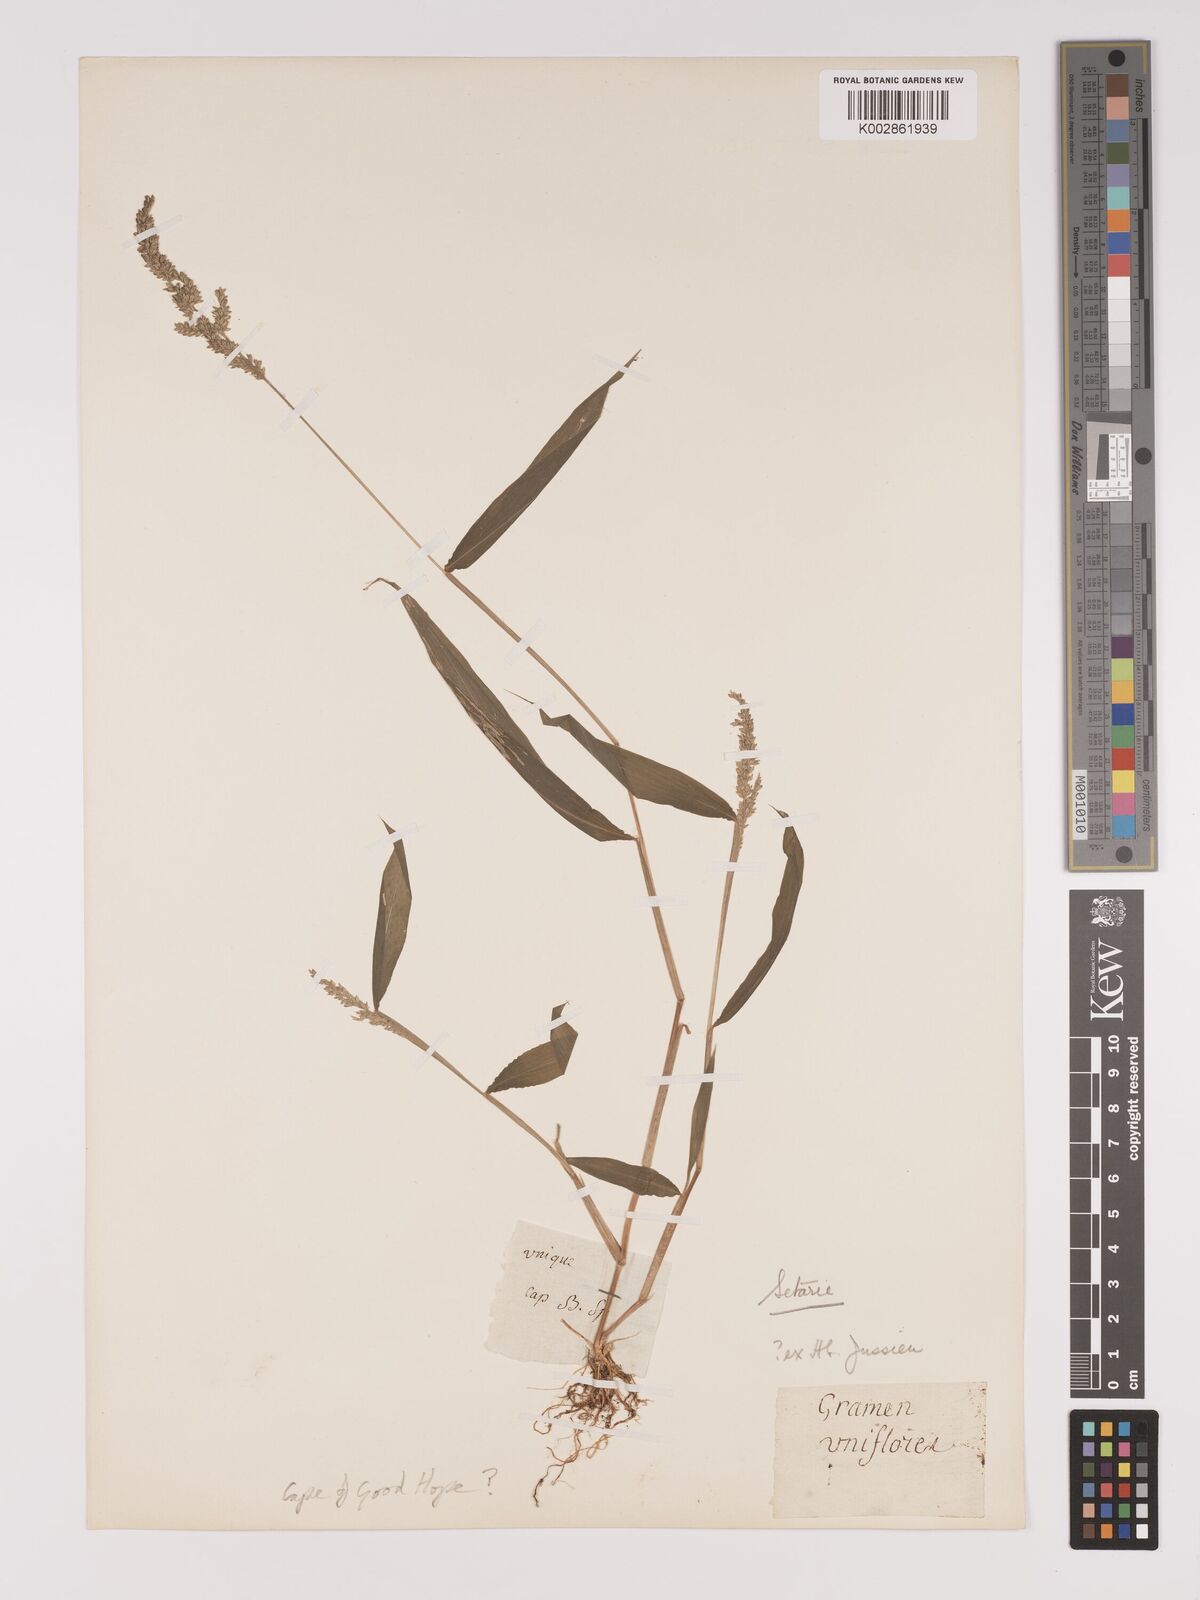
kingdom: Plantae
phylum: Tracheophyta
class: Liliopsida
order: Poales
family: Poaceae
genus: Setaria
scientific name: Setaria barbata
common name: East indian bristlegrass
